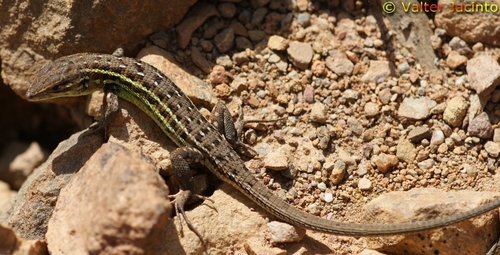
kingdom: Animalia
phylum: Chordata
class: Squamata
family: Lacertidae
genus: Psammodromus
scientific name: Psammodromus occidentalis
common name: Western psammodromus
